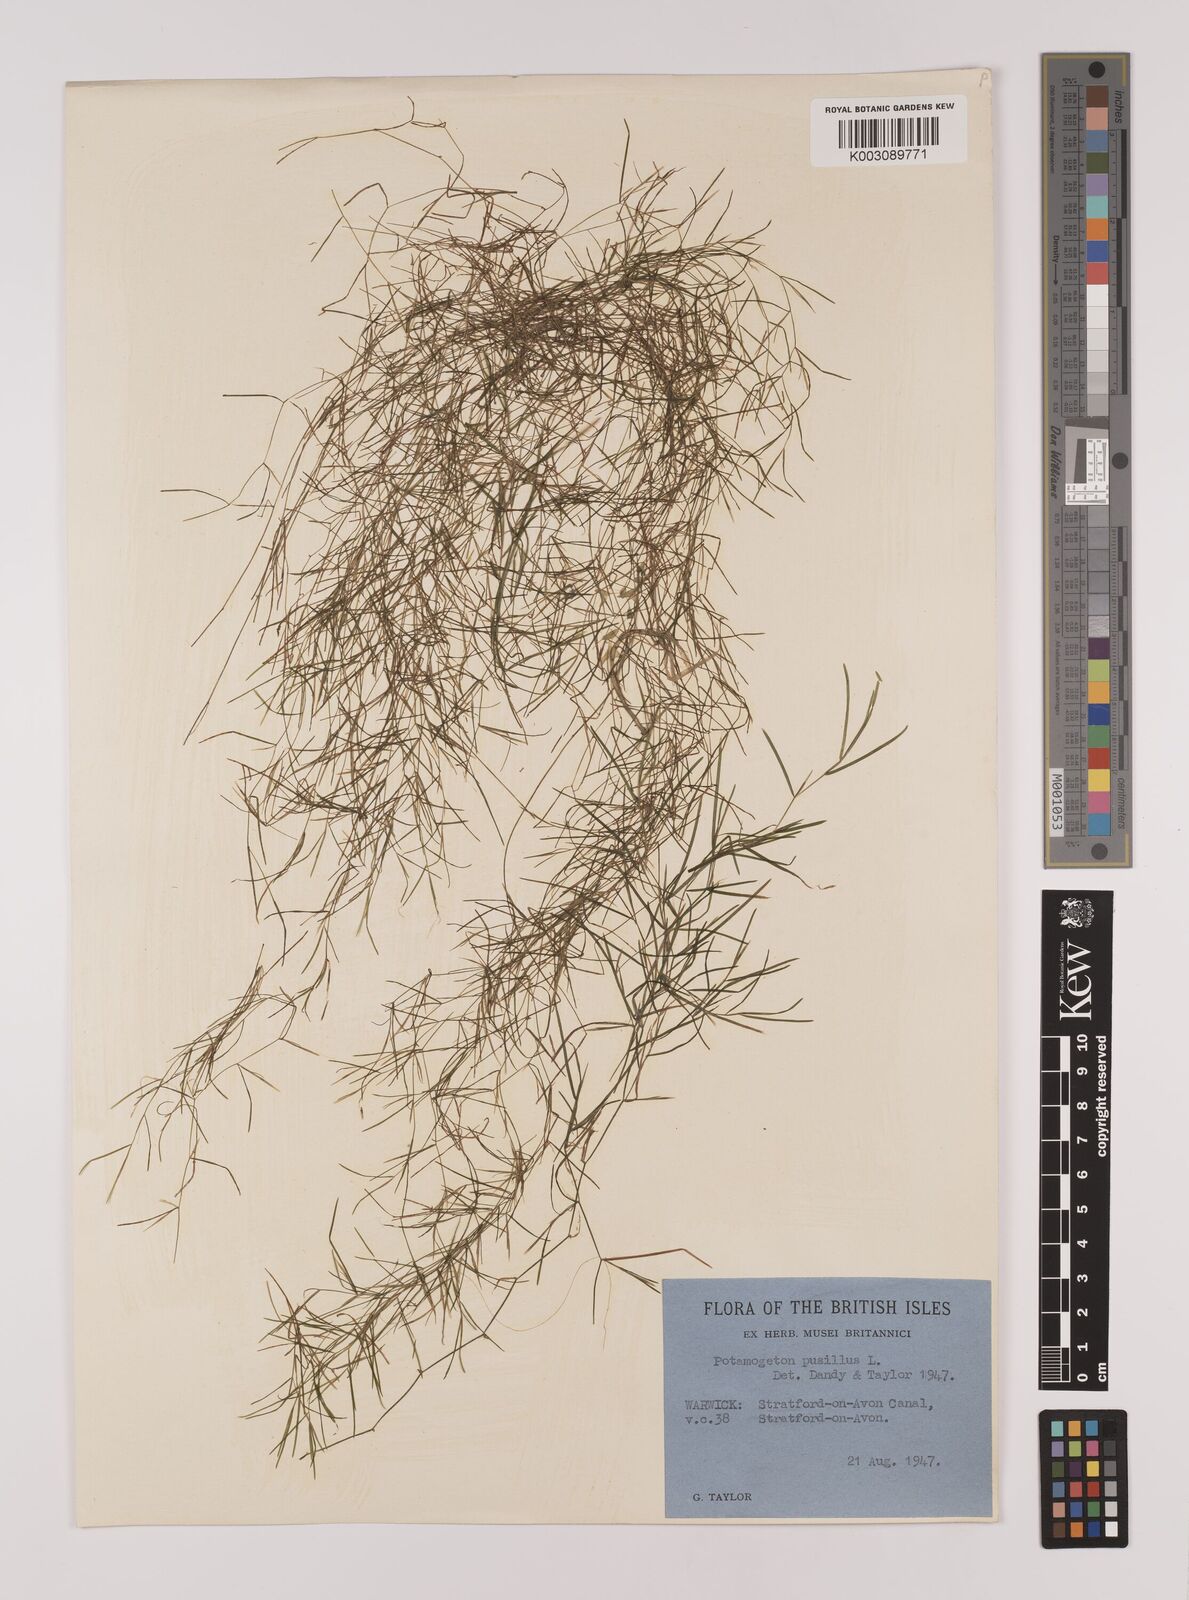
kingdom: Plantae
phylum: Tracheophyta
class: Liliopsida
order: Alismatales
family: Potamogetonaceae
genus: Stuckenia
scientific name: Stuckenia pectinata
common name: Sago pondweed
